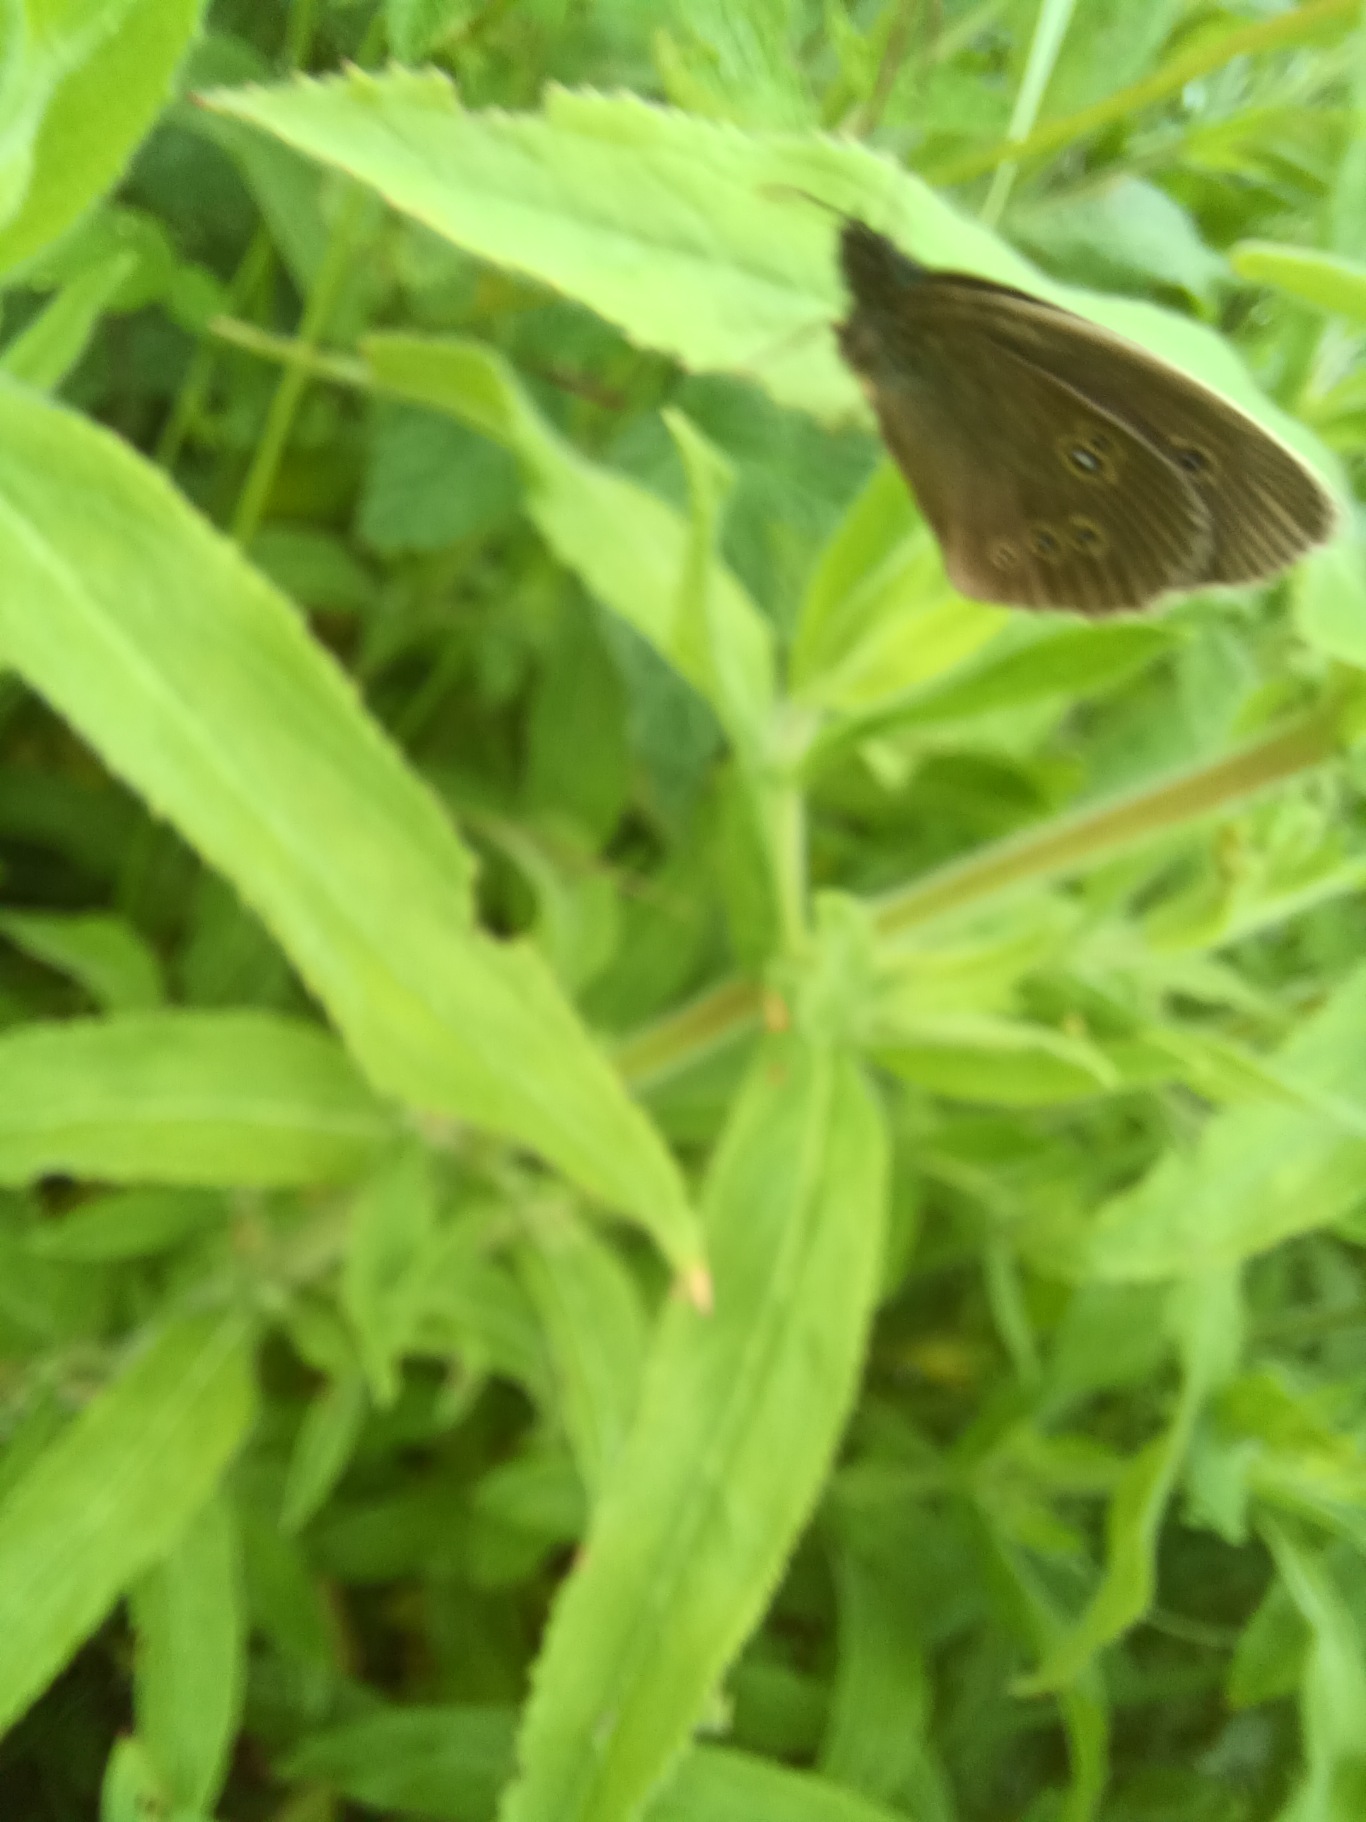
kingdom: Animalia
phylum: Arthropoda
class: Insecta
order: Lepidoptera
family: Nymphalidae
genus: Aphantopus
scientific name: Aphantopus hyperantus
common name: Engrandøje
